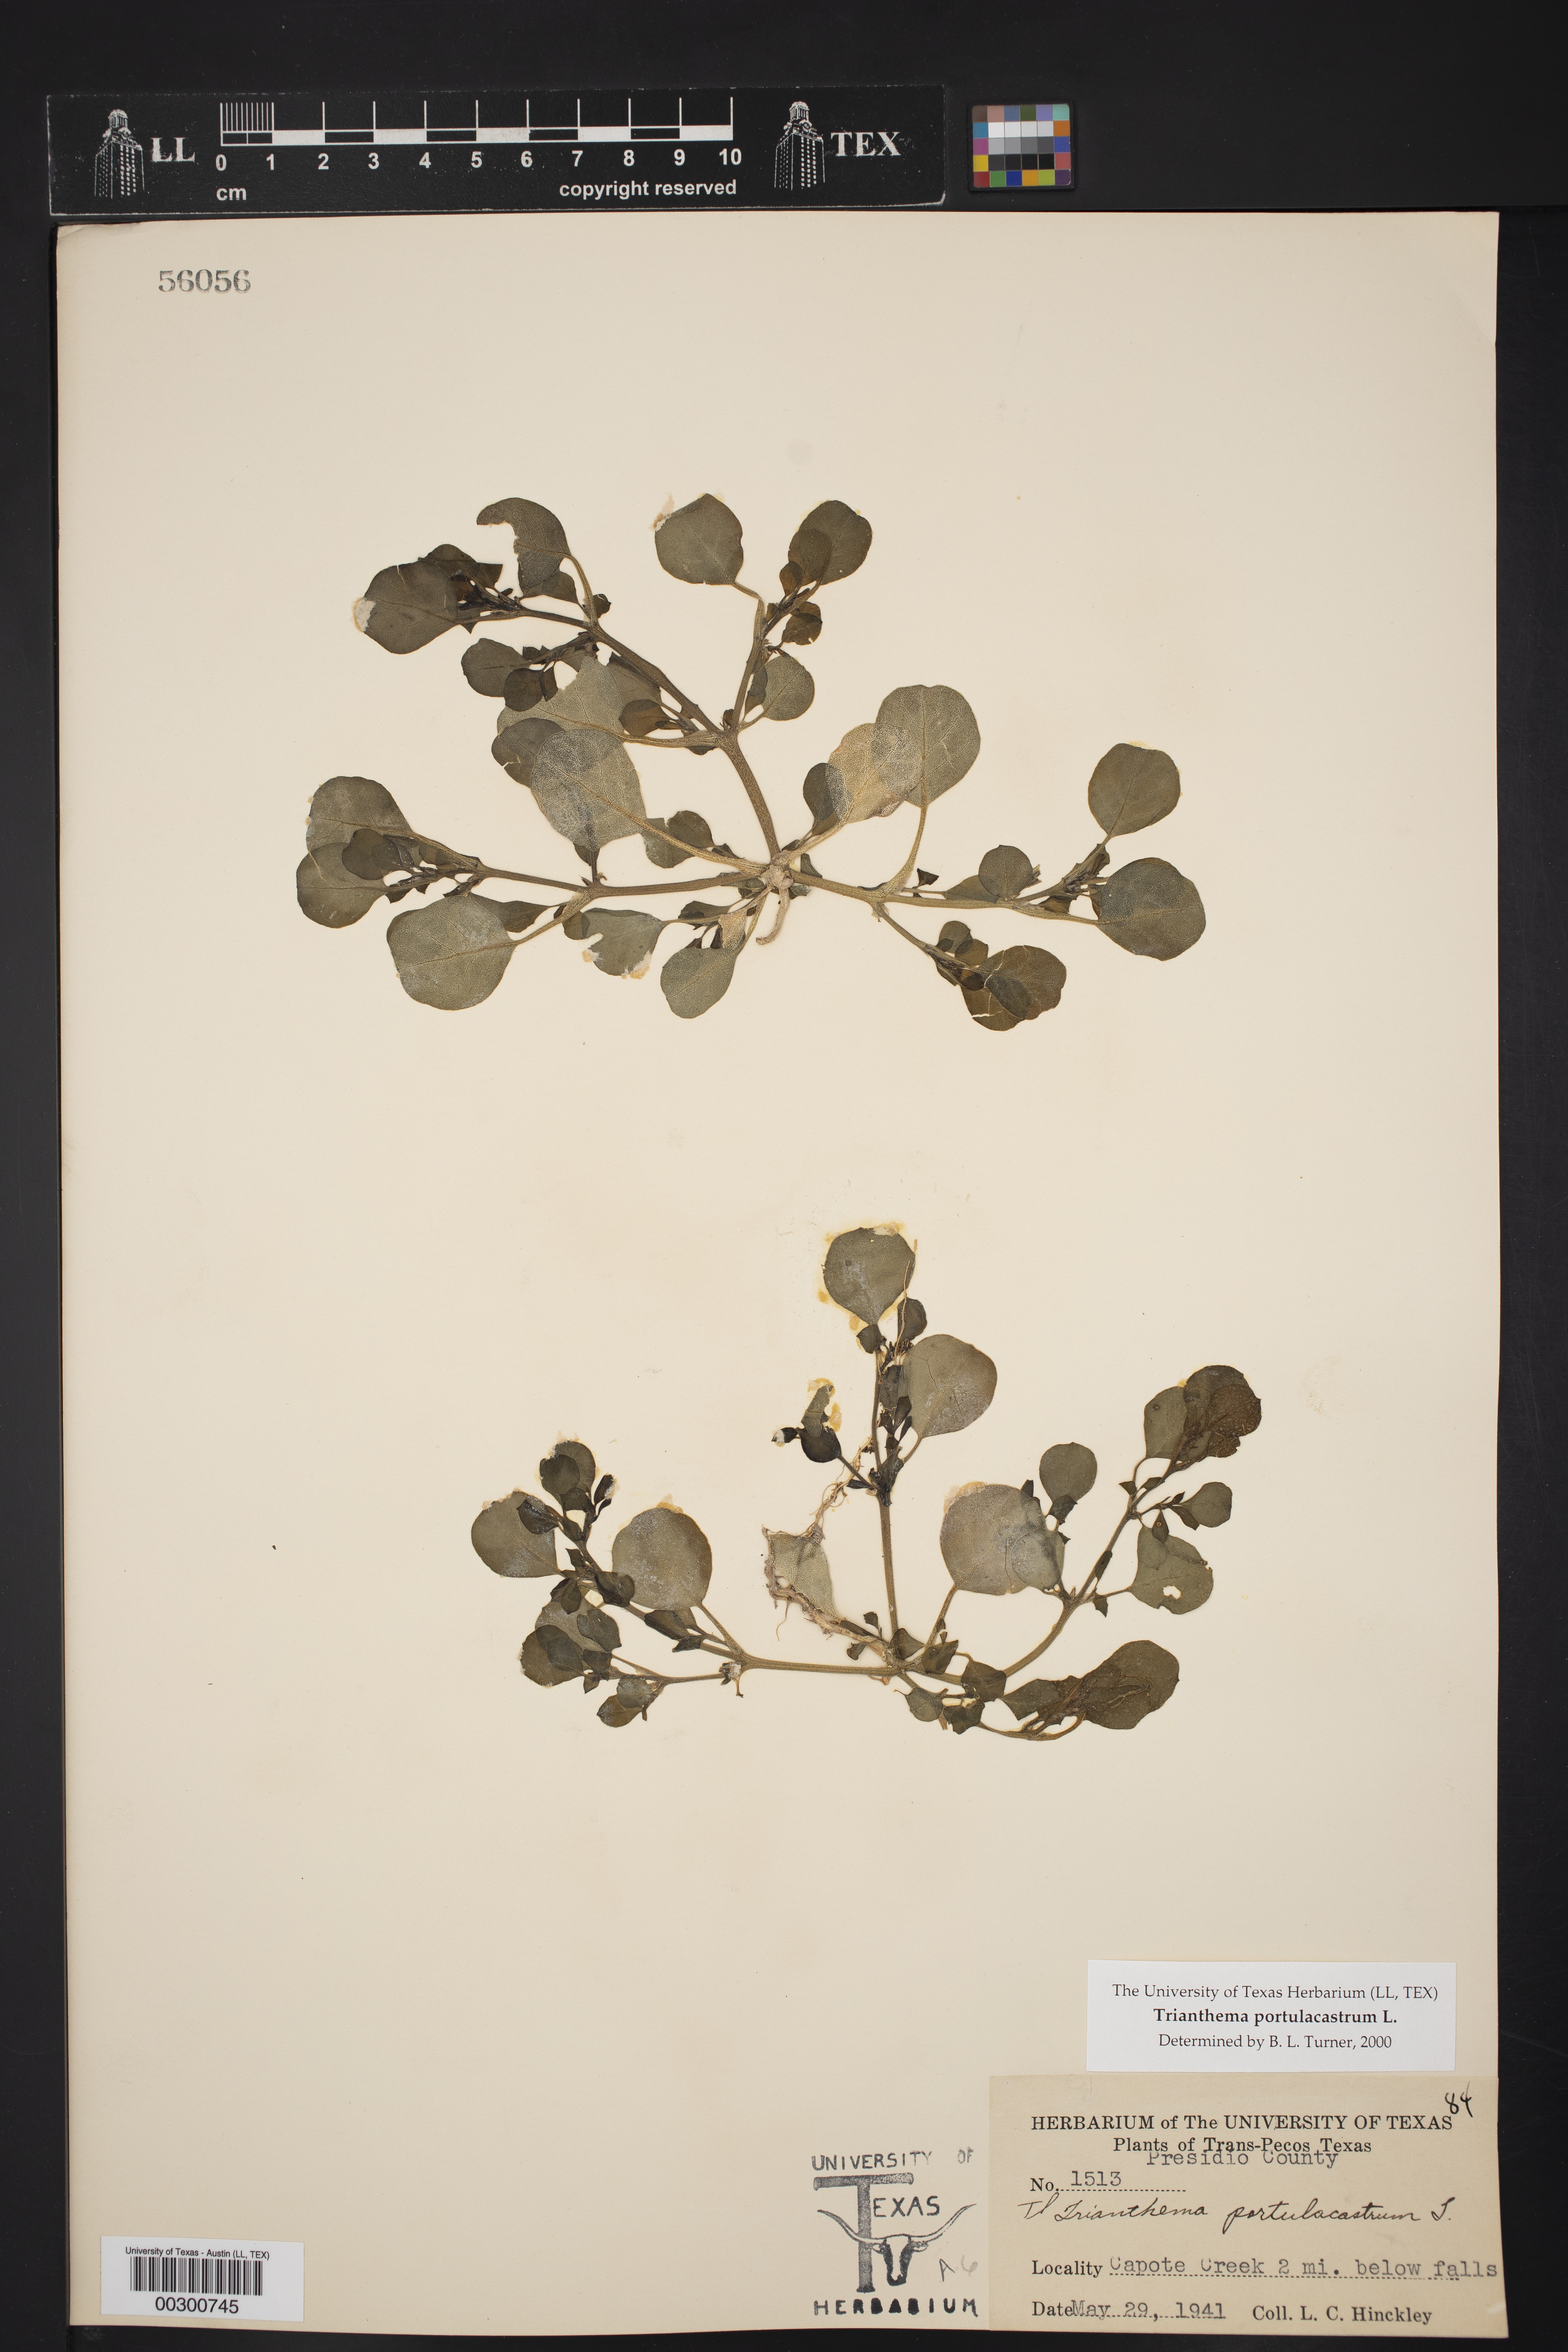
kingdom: Plantae
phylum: Tracheophyta
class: Magnoliopsida
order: Caryophyllales
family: Aizoaceae
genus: Trianthema
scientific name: Trianthema portulacastrum
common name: Desert horsepurslane
